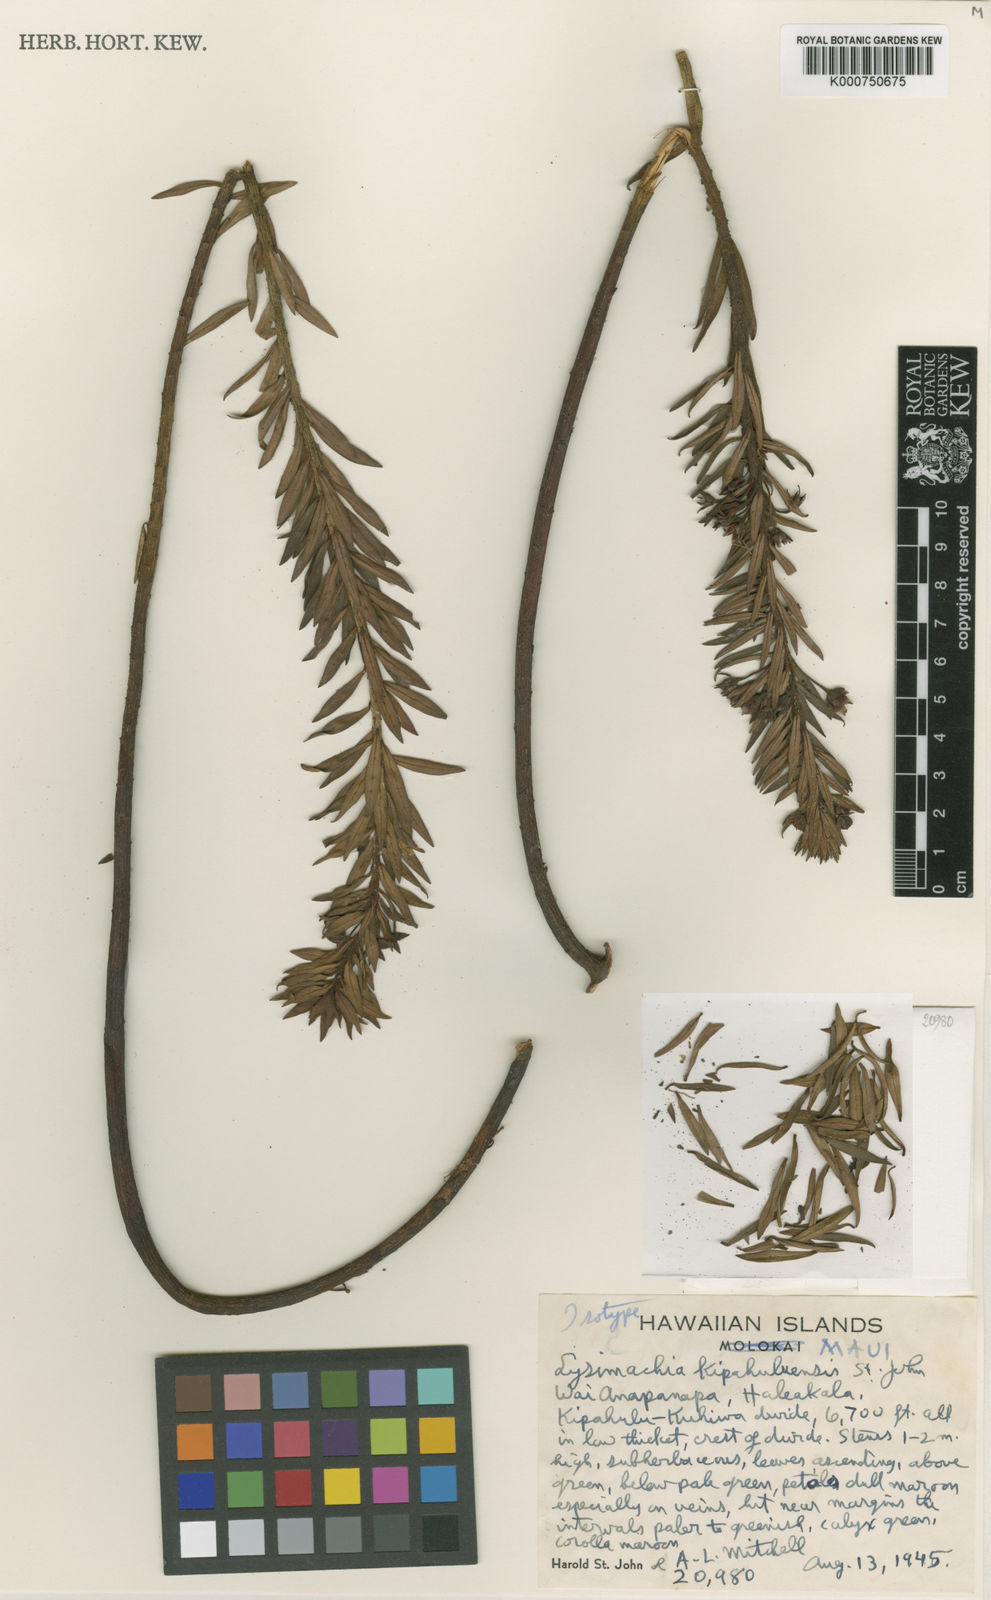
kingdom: Plantae
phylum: Tracheophyta
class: Magnoliopsida
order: Ericales
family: Primulaceae
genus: Lysimachia
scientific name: Lysimachia remyi
